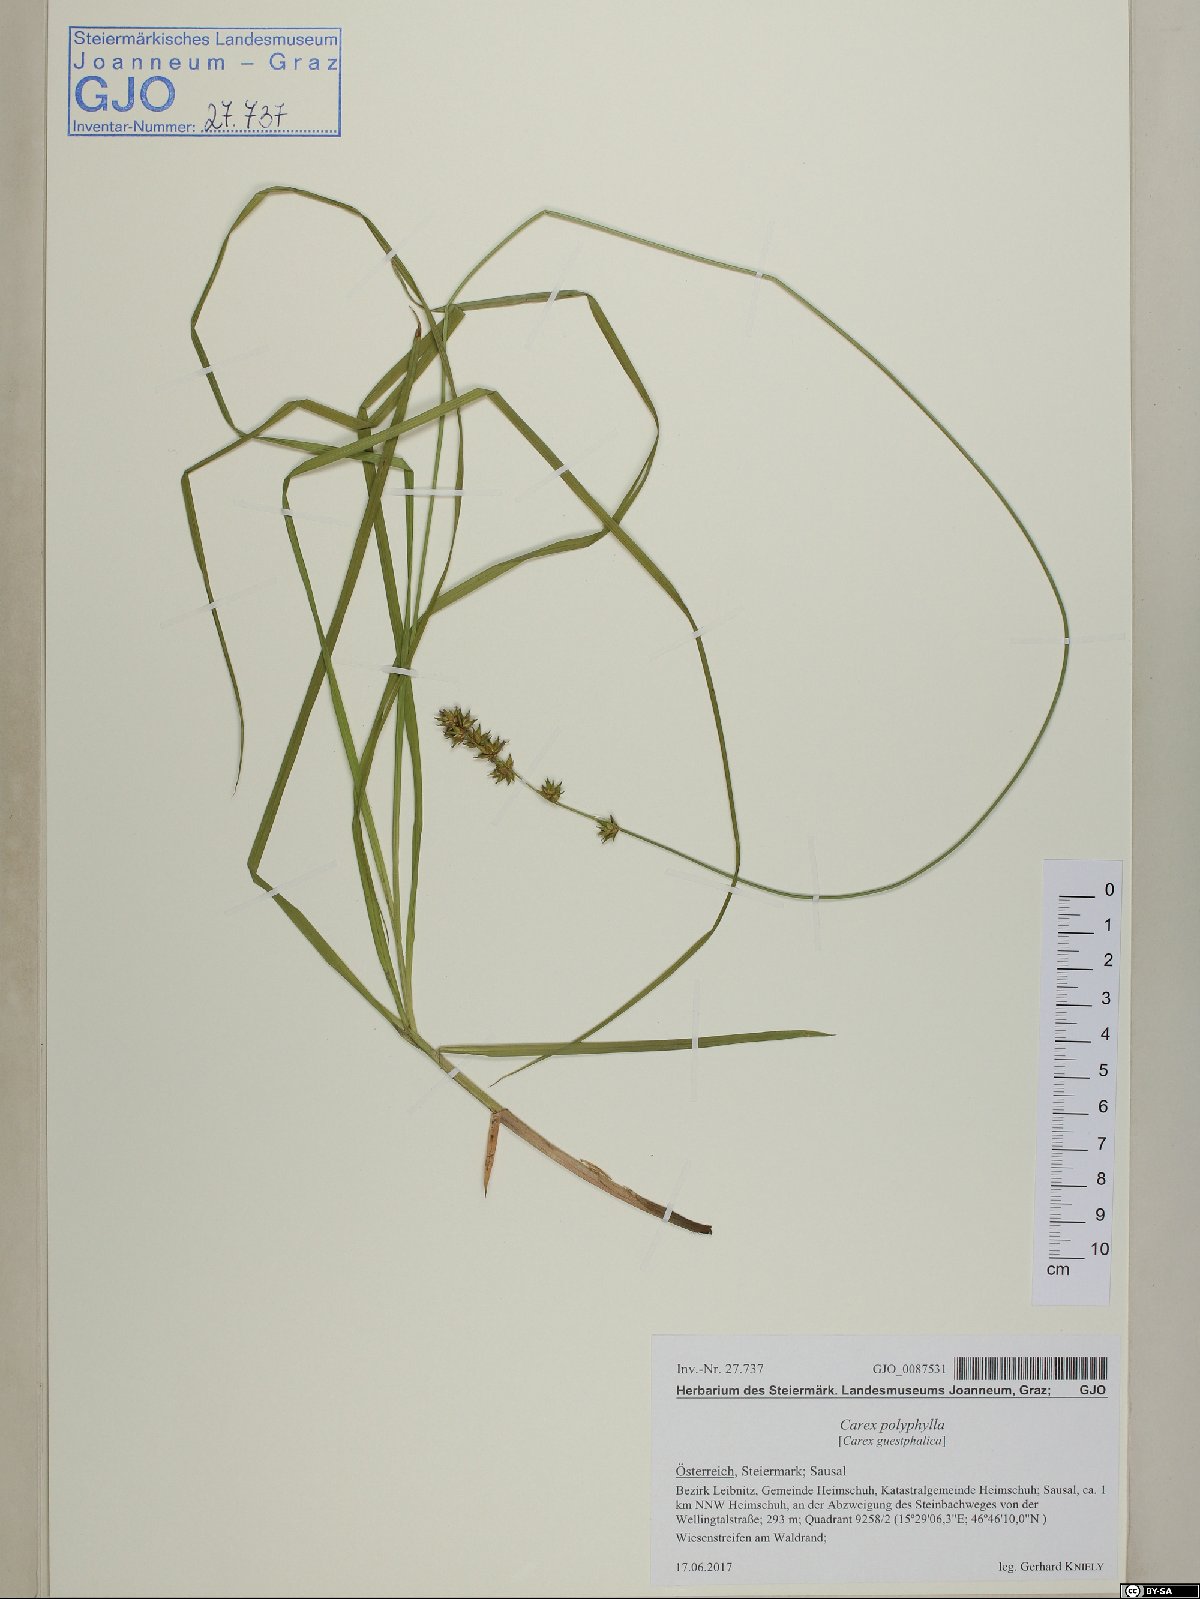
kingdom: Plantae
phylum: Tracheophyta
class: Liliopsida
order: Poales
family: Cyperaceae
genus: Carex
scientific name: Carex polyphylla
